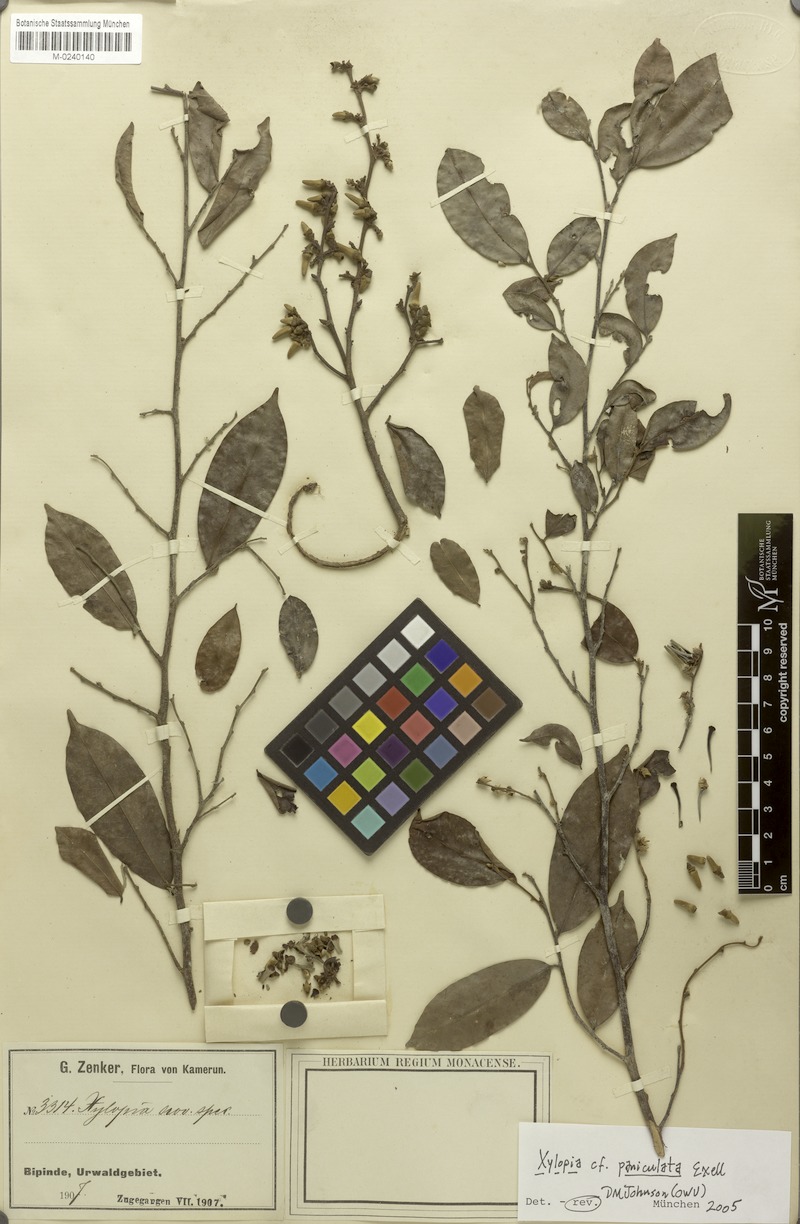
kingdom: Plantae
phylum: Tracheophyta
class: Magnoliopsida
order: Magnoliales
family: Annonaceae
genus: Xylopia
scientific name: Xylopia paniculata
